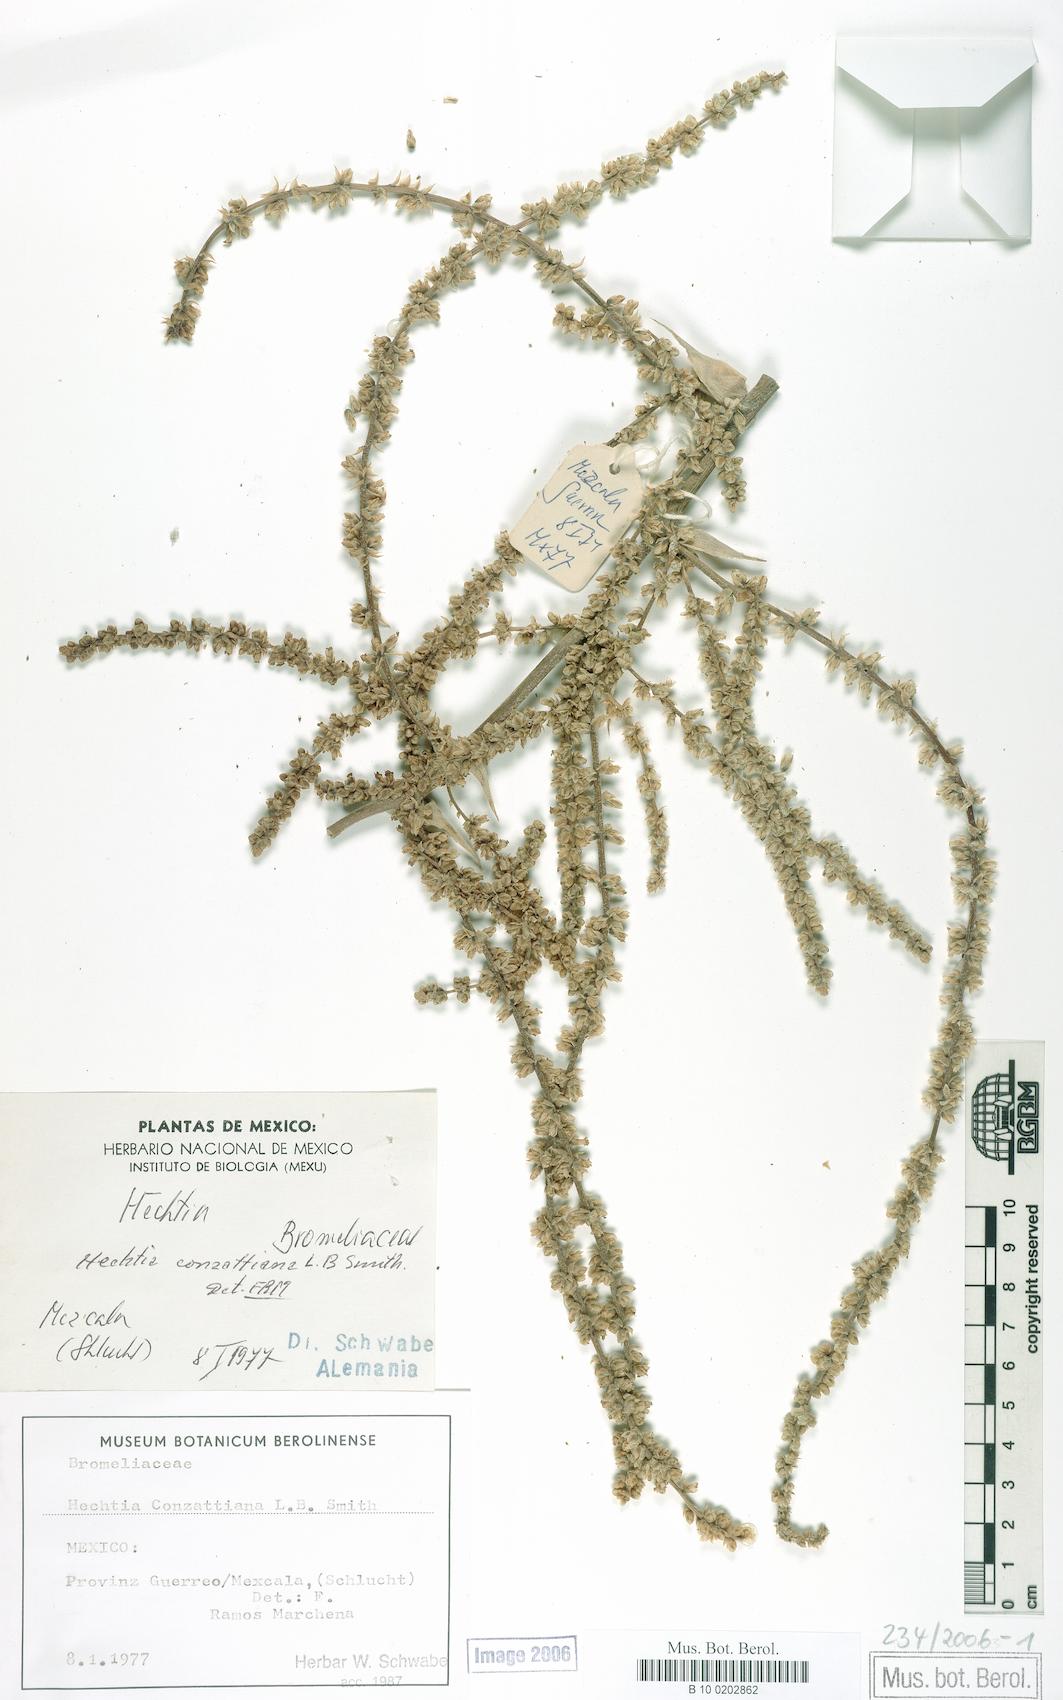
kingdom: Plantae
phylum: Tracheophyta
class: Liliopsida
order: Poales
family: Bromeliaceae
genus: Hechtia
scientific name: Hechtia melanocarpa
